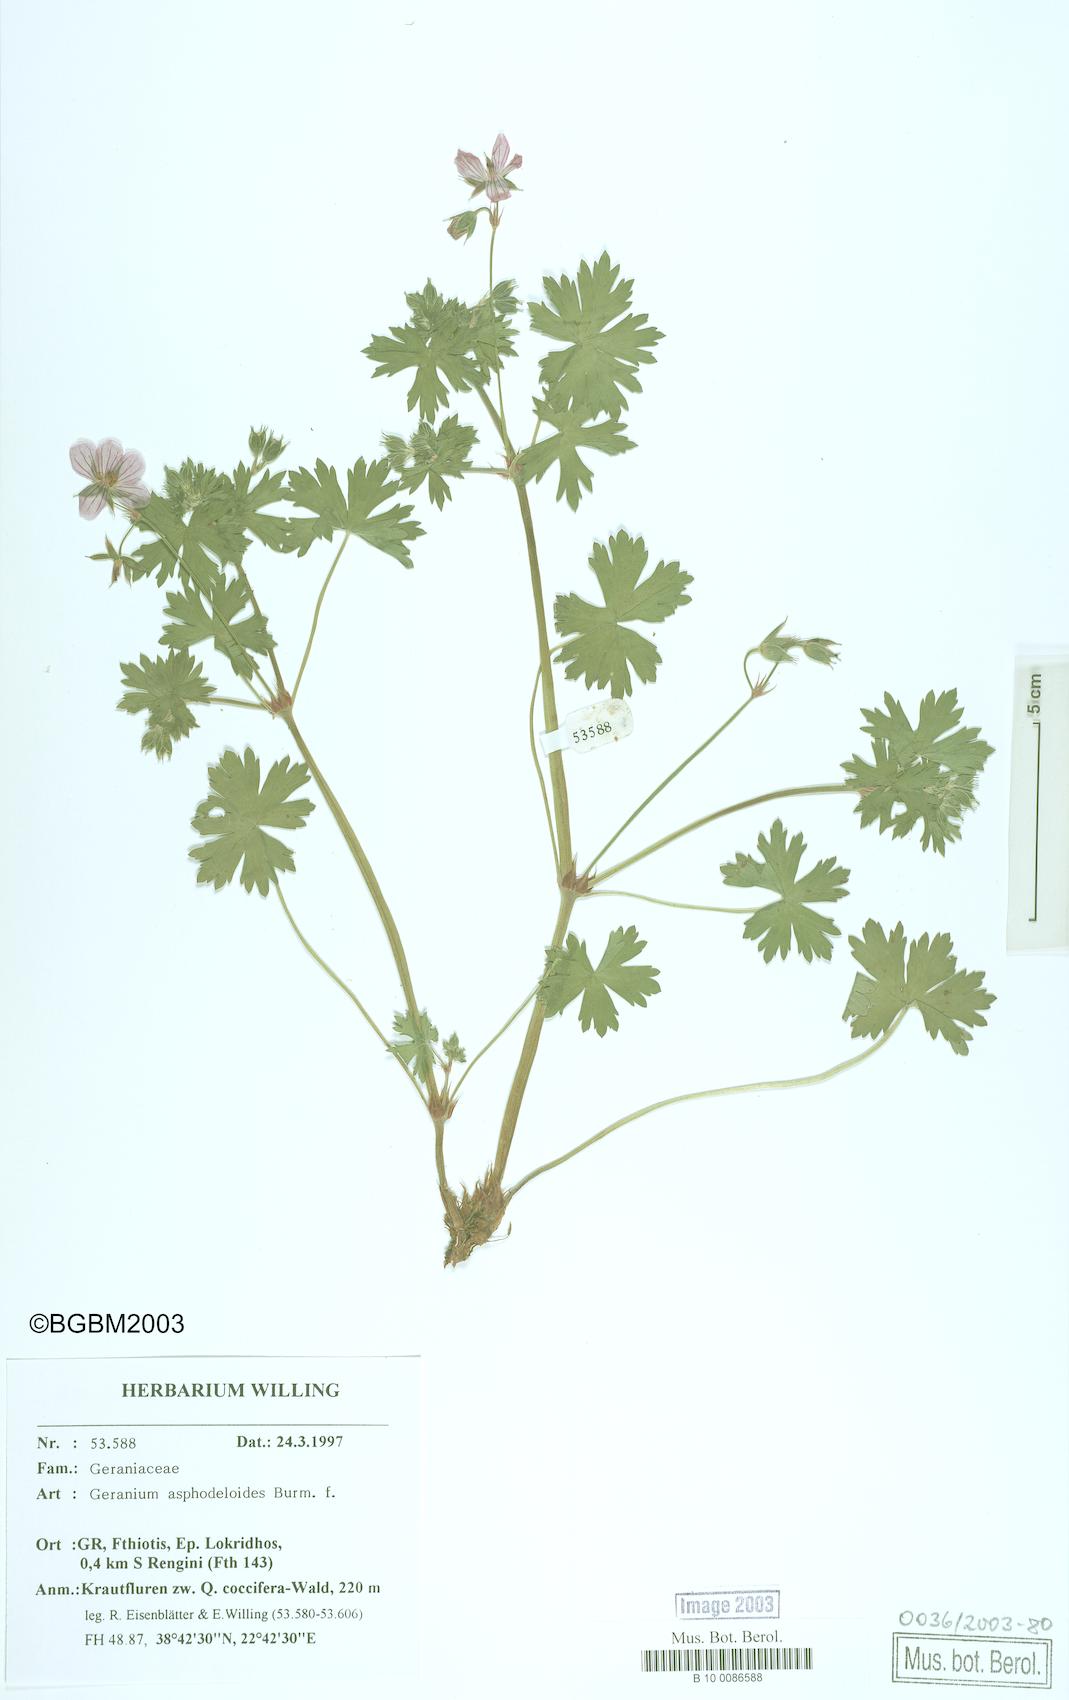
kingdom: Plantae
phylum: Tracheophyta
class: Magnoliopsida
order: Geraniales
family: Geraniaceae
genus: Geranium
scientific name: Geranium asphodeloides
